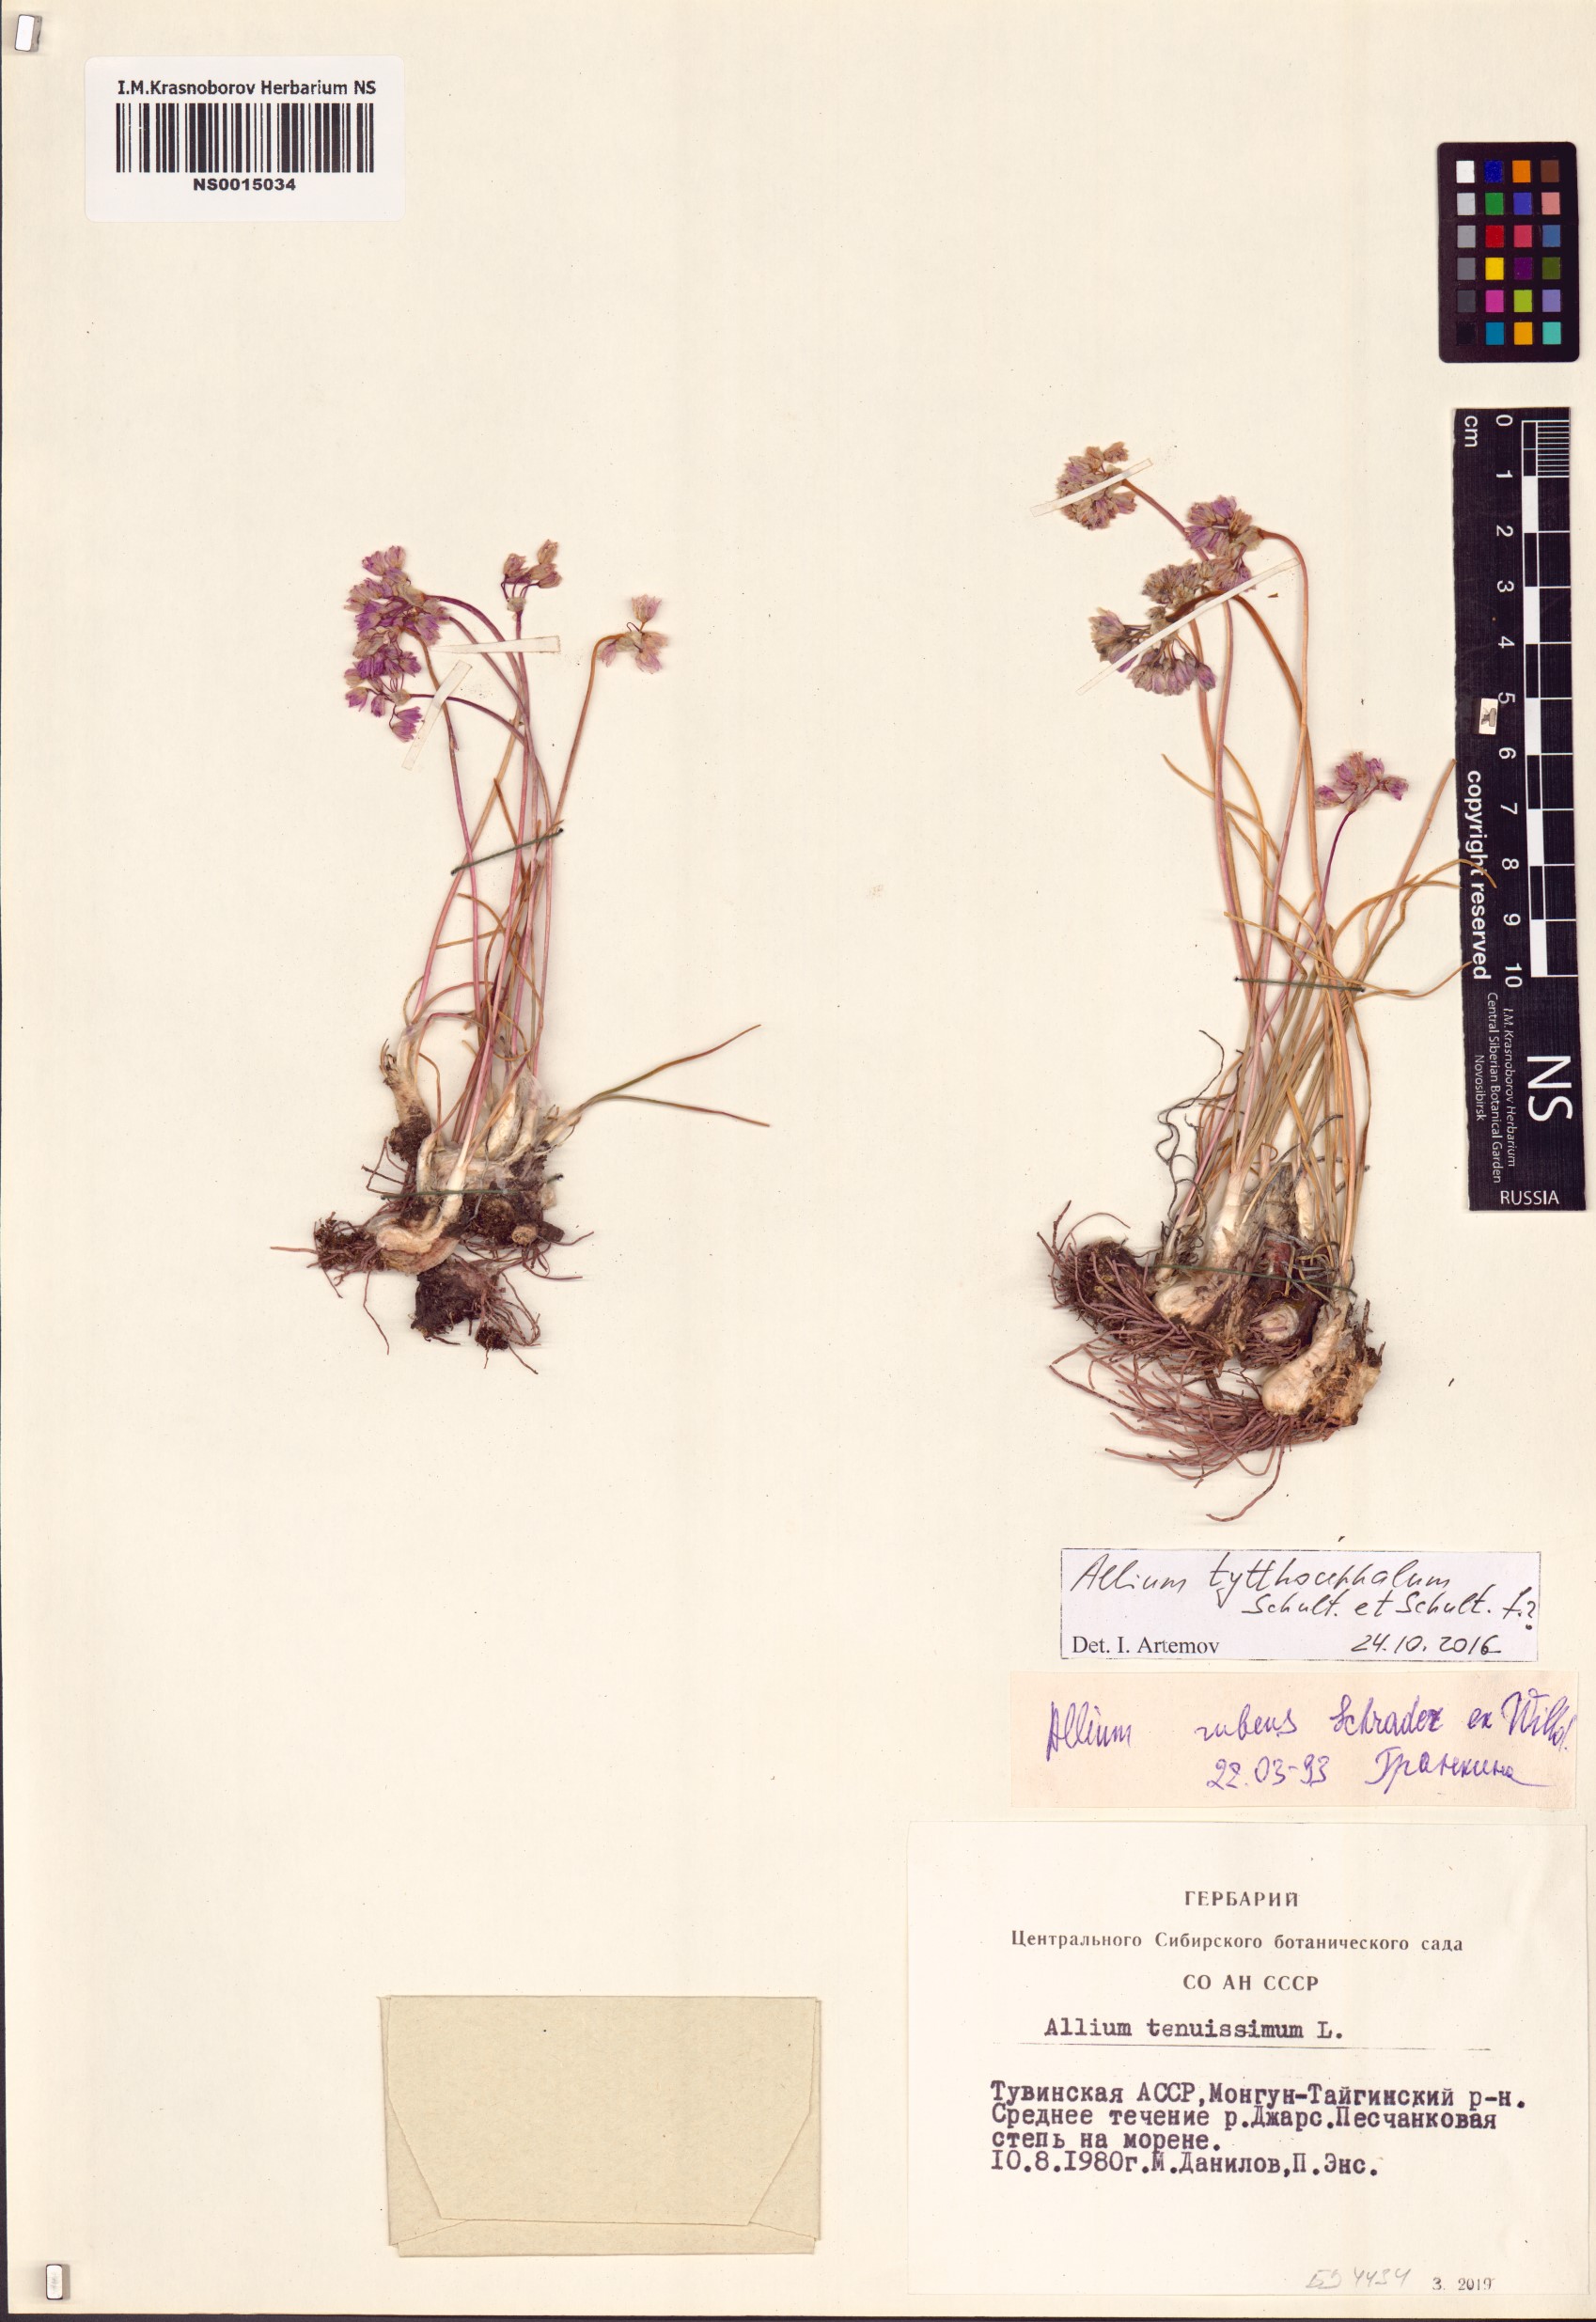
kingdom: Plantae
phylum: Tracheophyta
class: Liliopsida
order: Asparagales
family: Amaryllidaceae
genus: Allium
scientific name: Allium tytthocephalum
